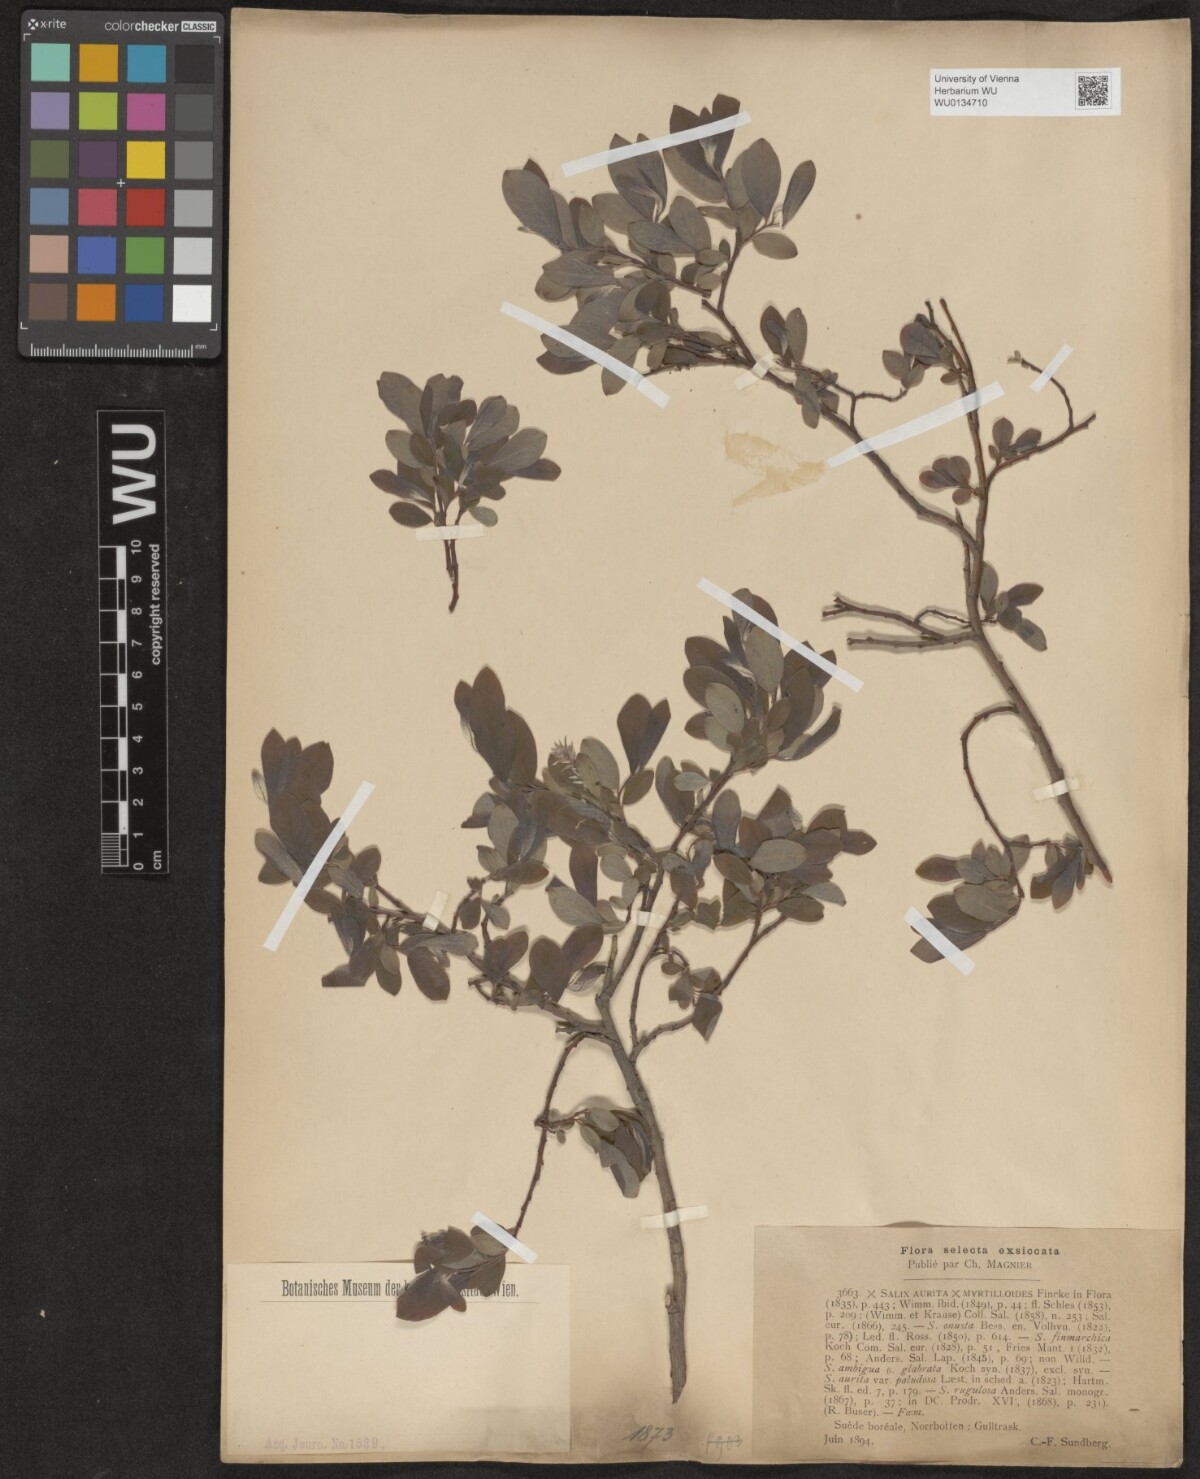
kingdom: Plantae
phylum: Tracheophyta
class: Magnoliopsida
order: Malpighiales
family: Salicaceae
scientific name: Salicaceae
